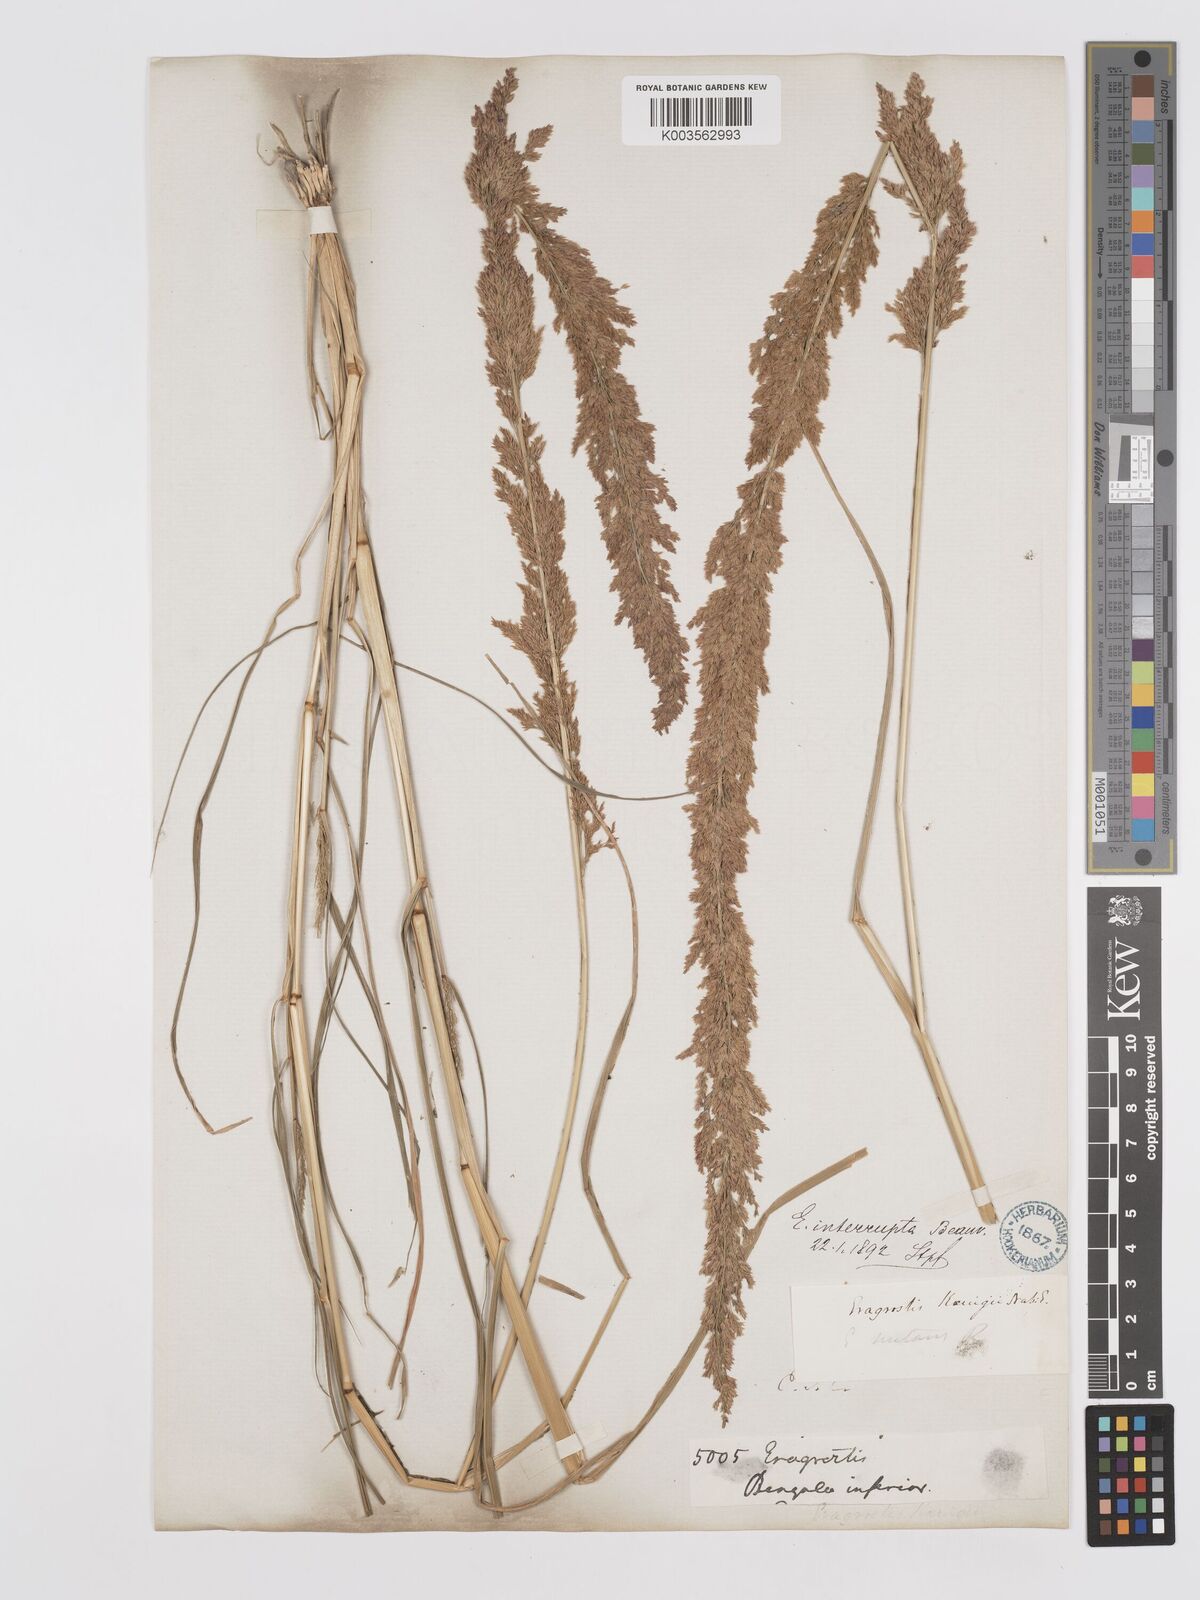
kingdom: Plantae
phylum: Tracheophyta
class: Liliopsida
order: Poales
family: Poaceae
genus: Eragrostis
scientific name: Eragrostis japonica
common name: Pond lovegrass
